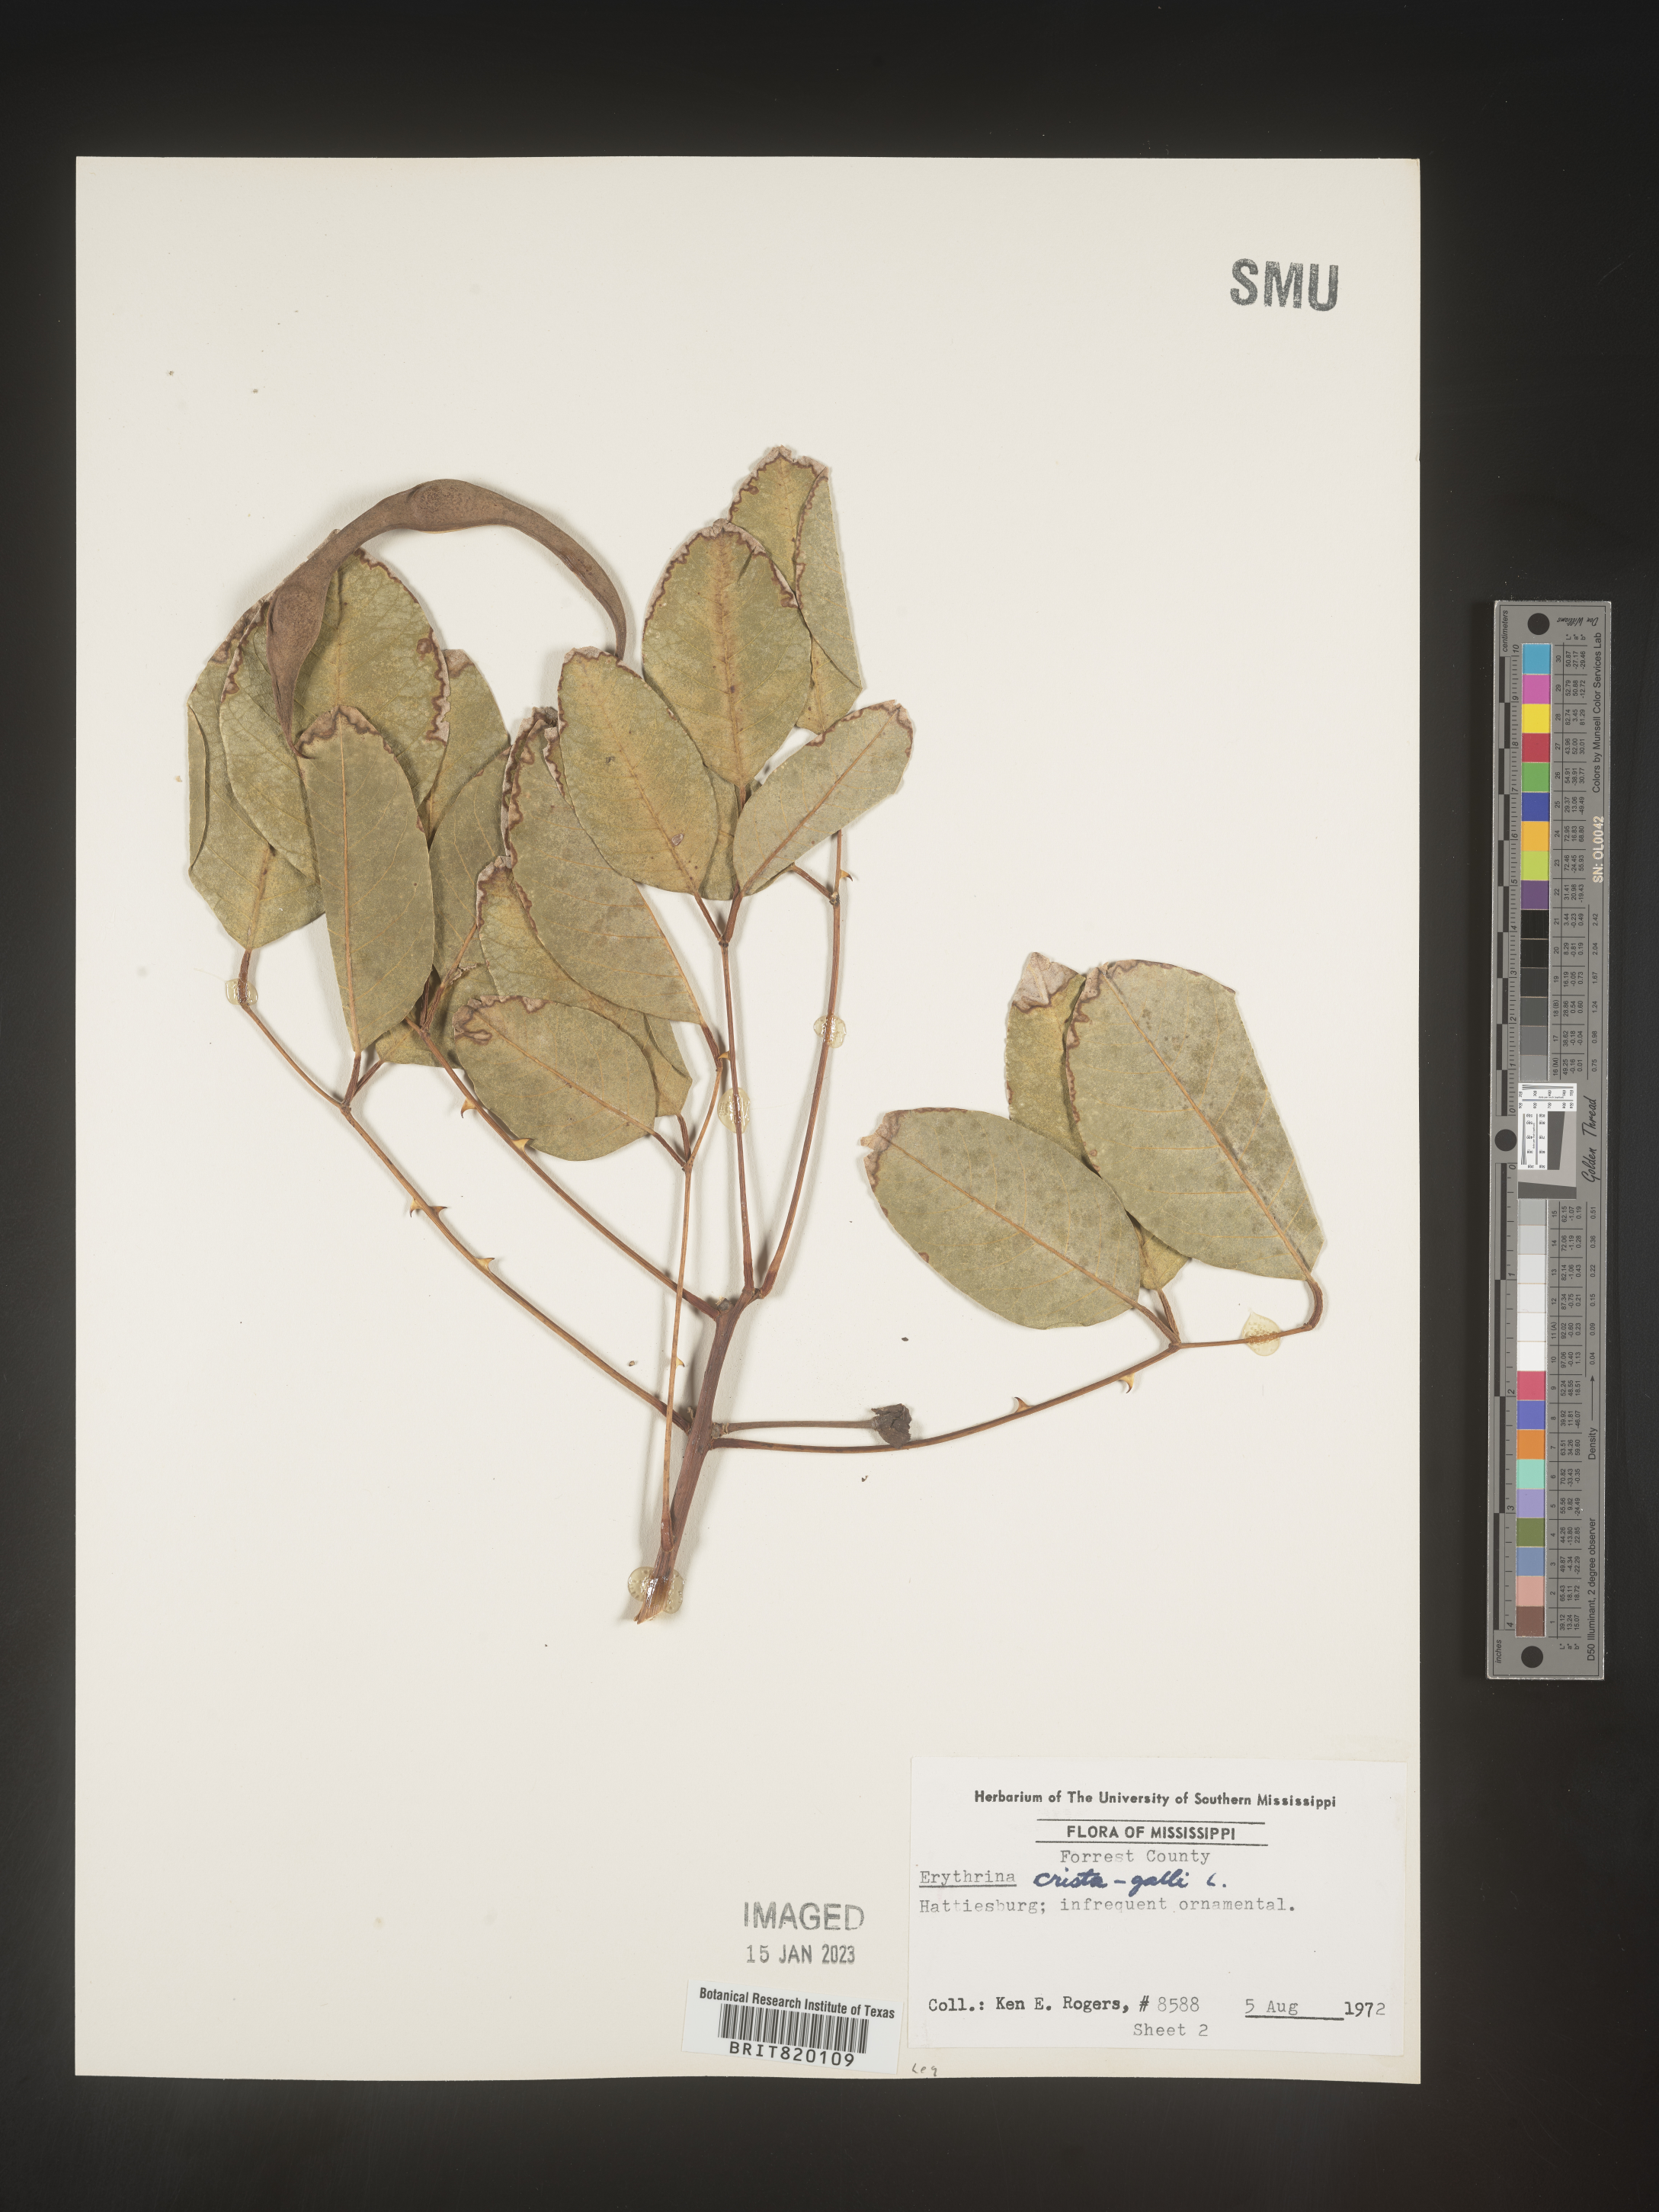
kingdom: Plantae
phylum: Tracheophyta
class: Magnoliopsida
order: Fabales
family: Fabaceae
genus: Erythrina
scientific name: Erythrina
